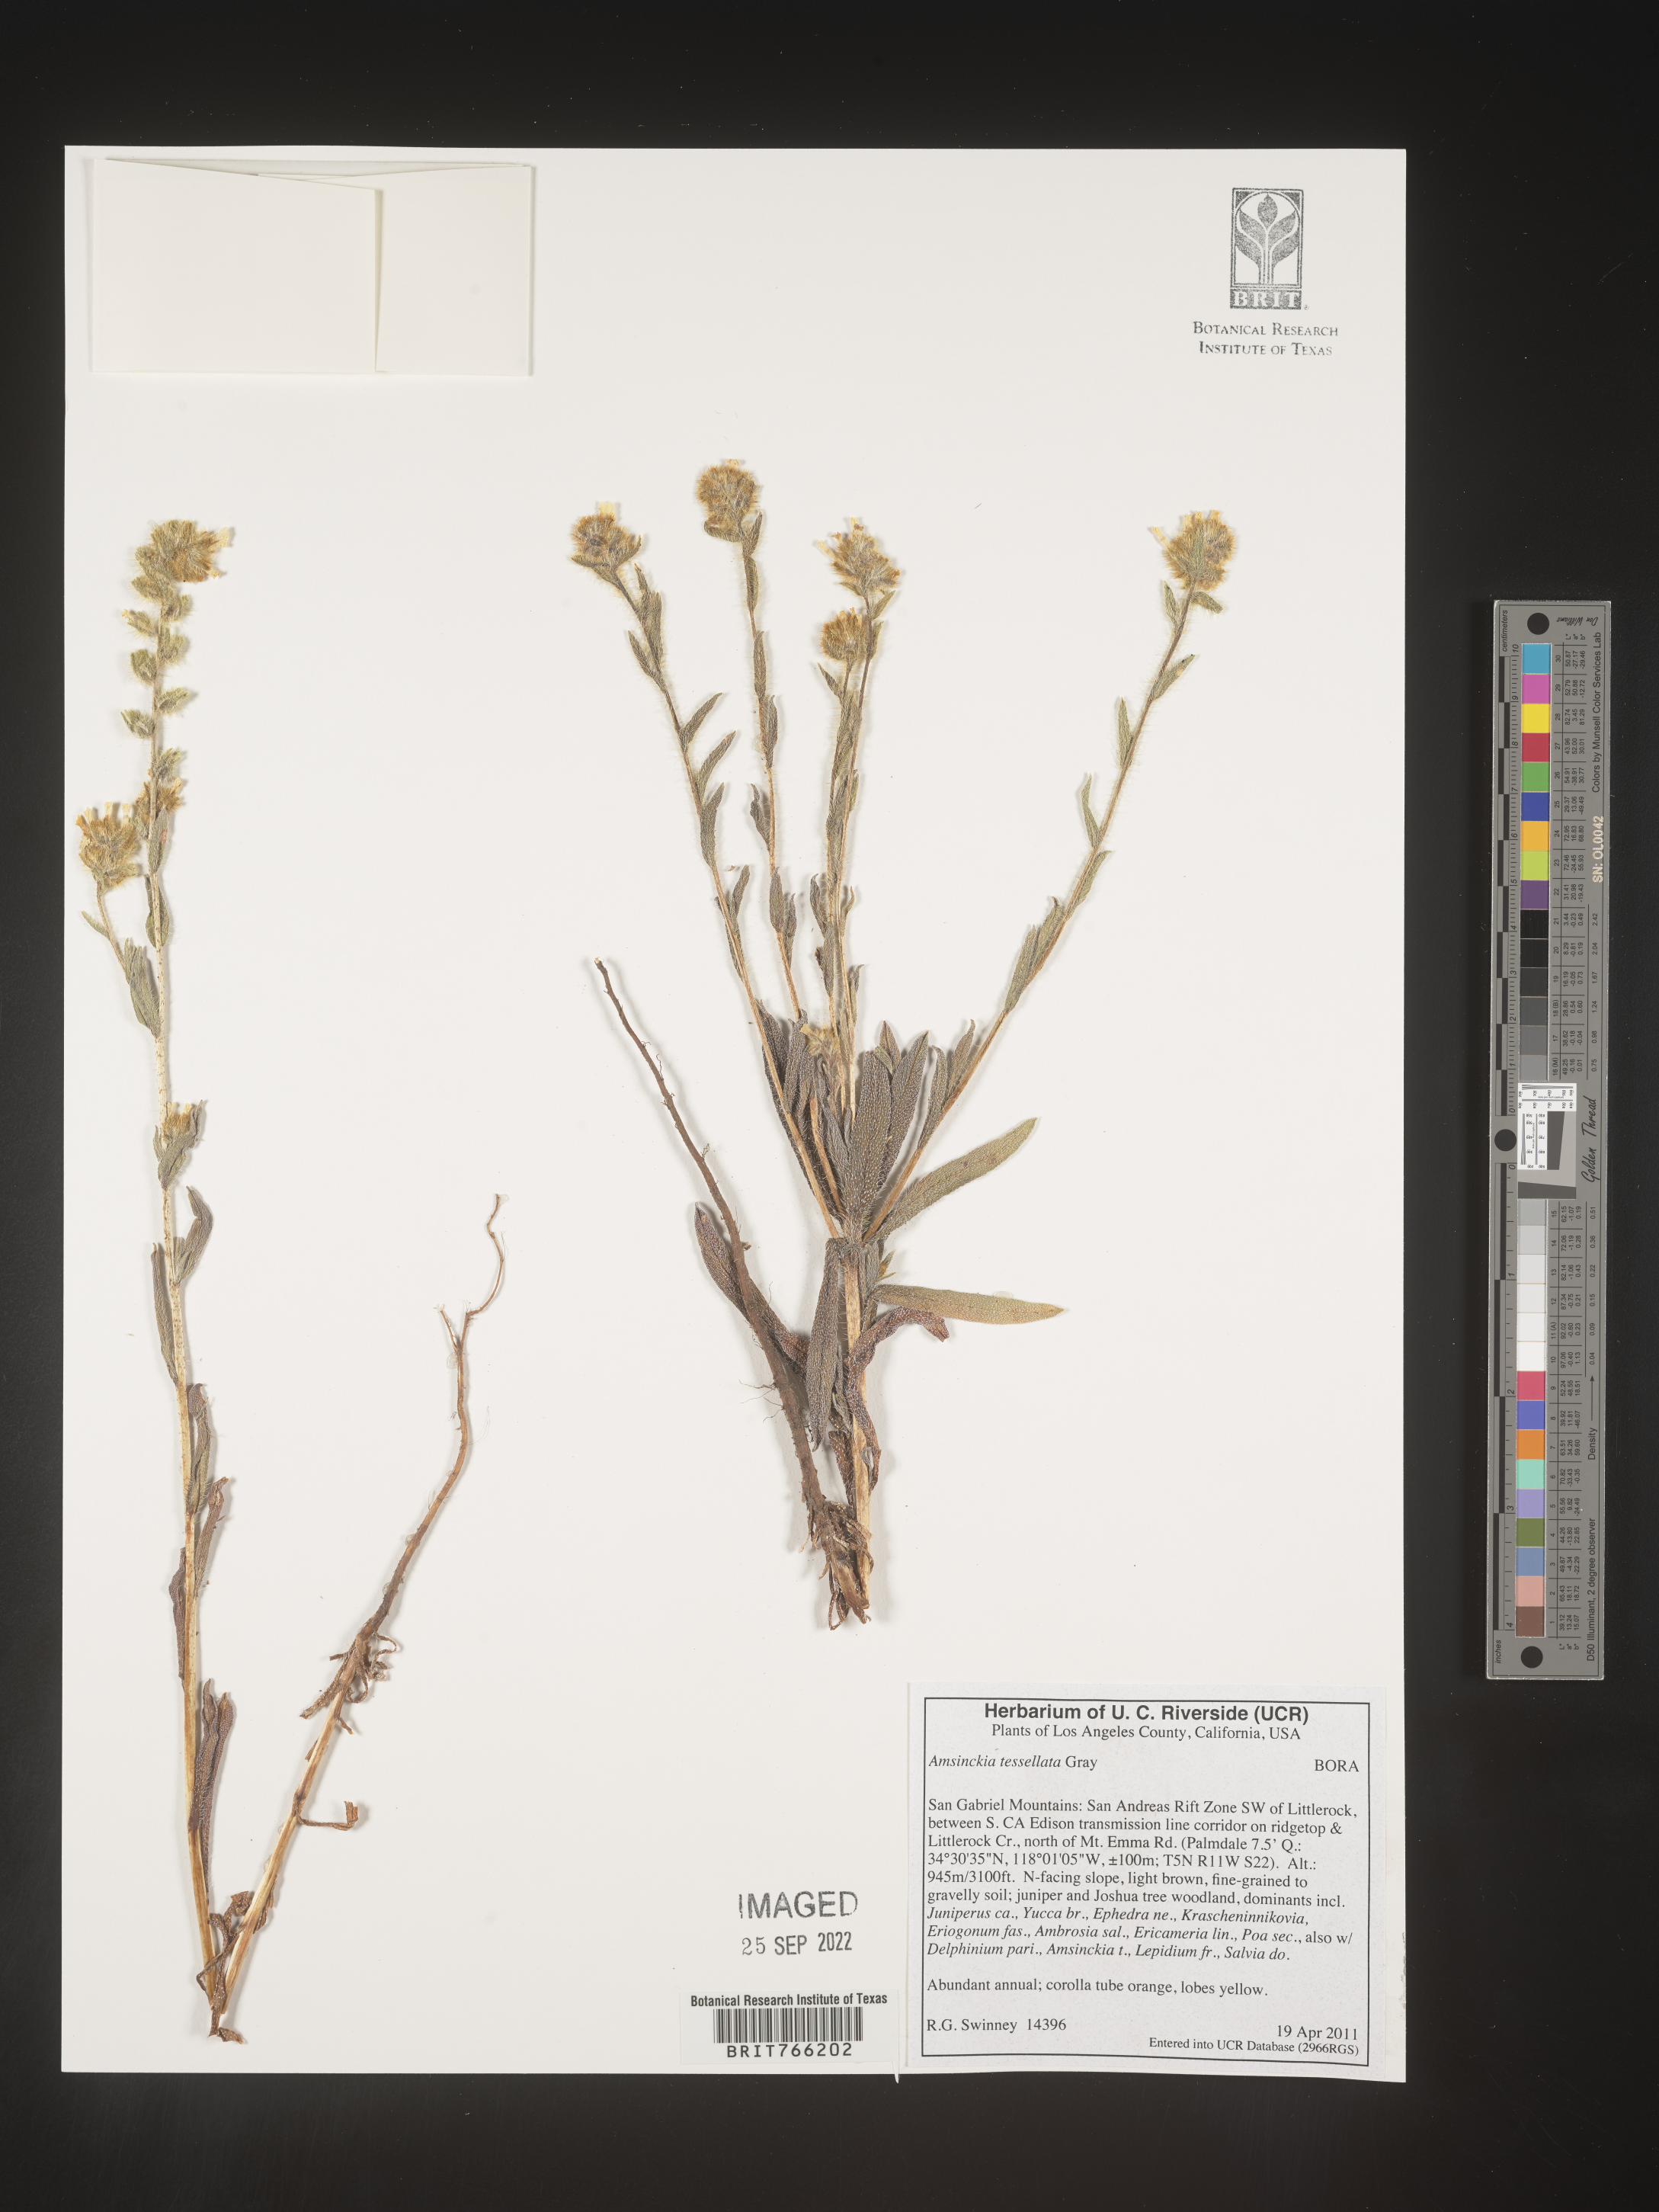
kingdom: Plantae
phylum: Tracheophyta
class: Magnoliopsida
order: Boraginales
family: Boraginaceae
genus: Amsinckia
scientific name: Amsinckia tessellata
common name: Tessellate fiddleneck
